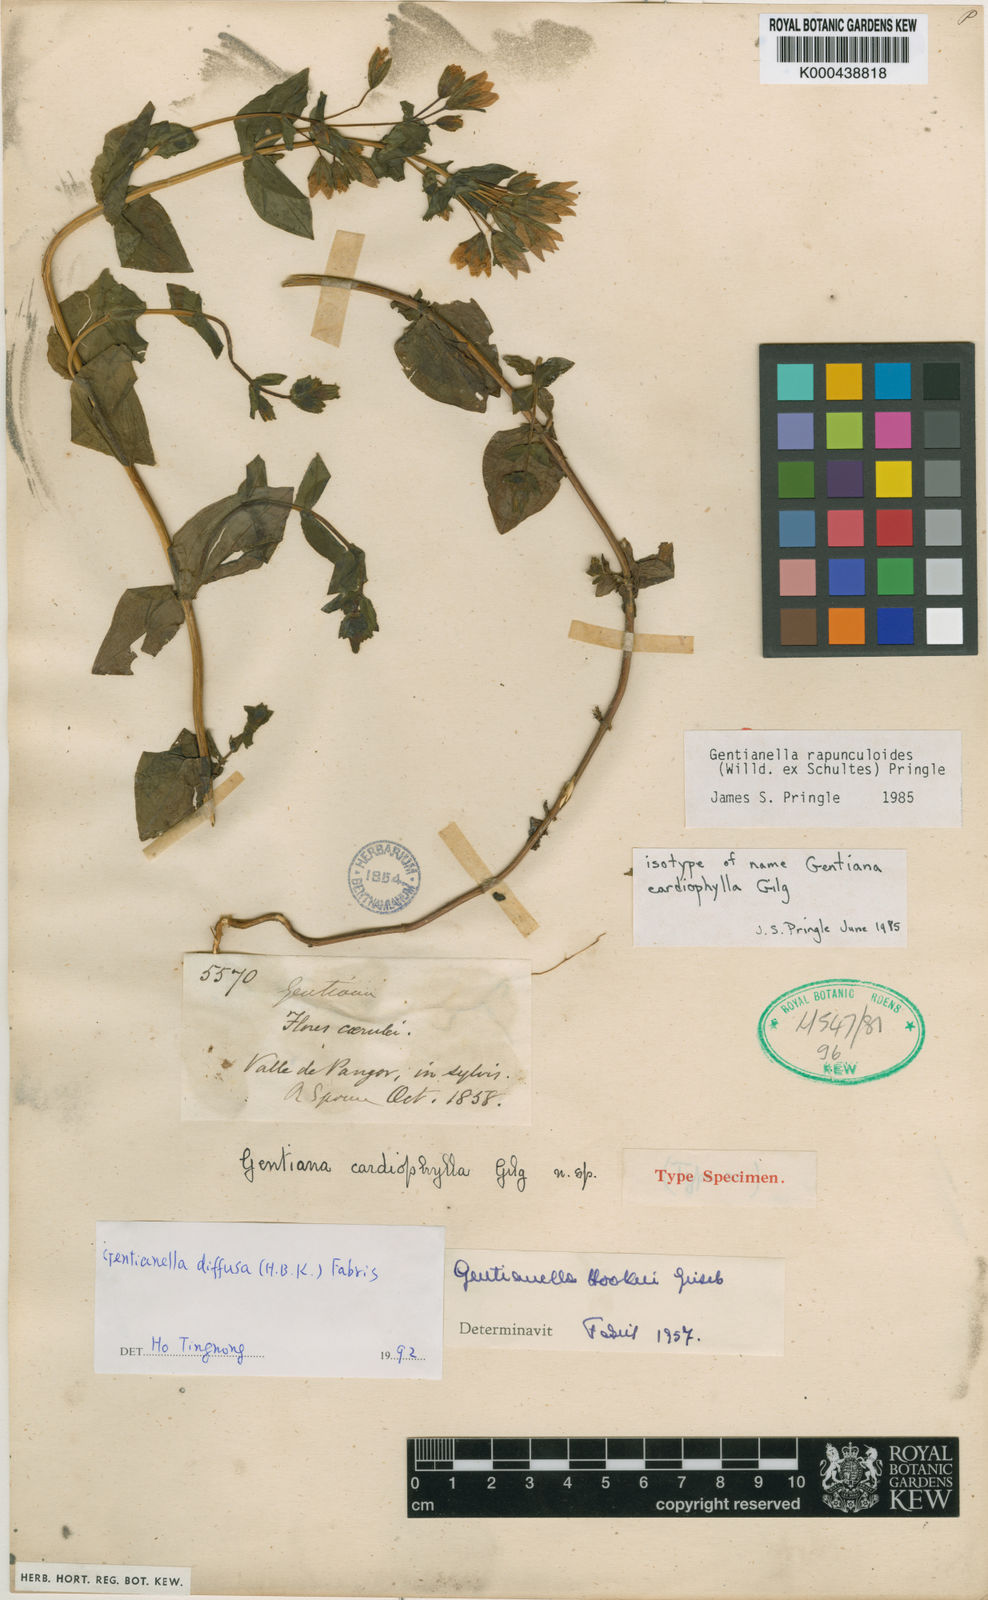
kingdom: Plantae
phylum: Tracheophyta
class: Magnoliopsida
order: Gentianales
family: Gentianaceae
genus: Gentianella
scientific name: Gentianella rapunculoides
